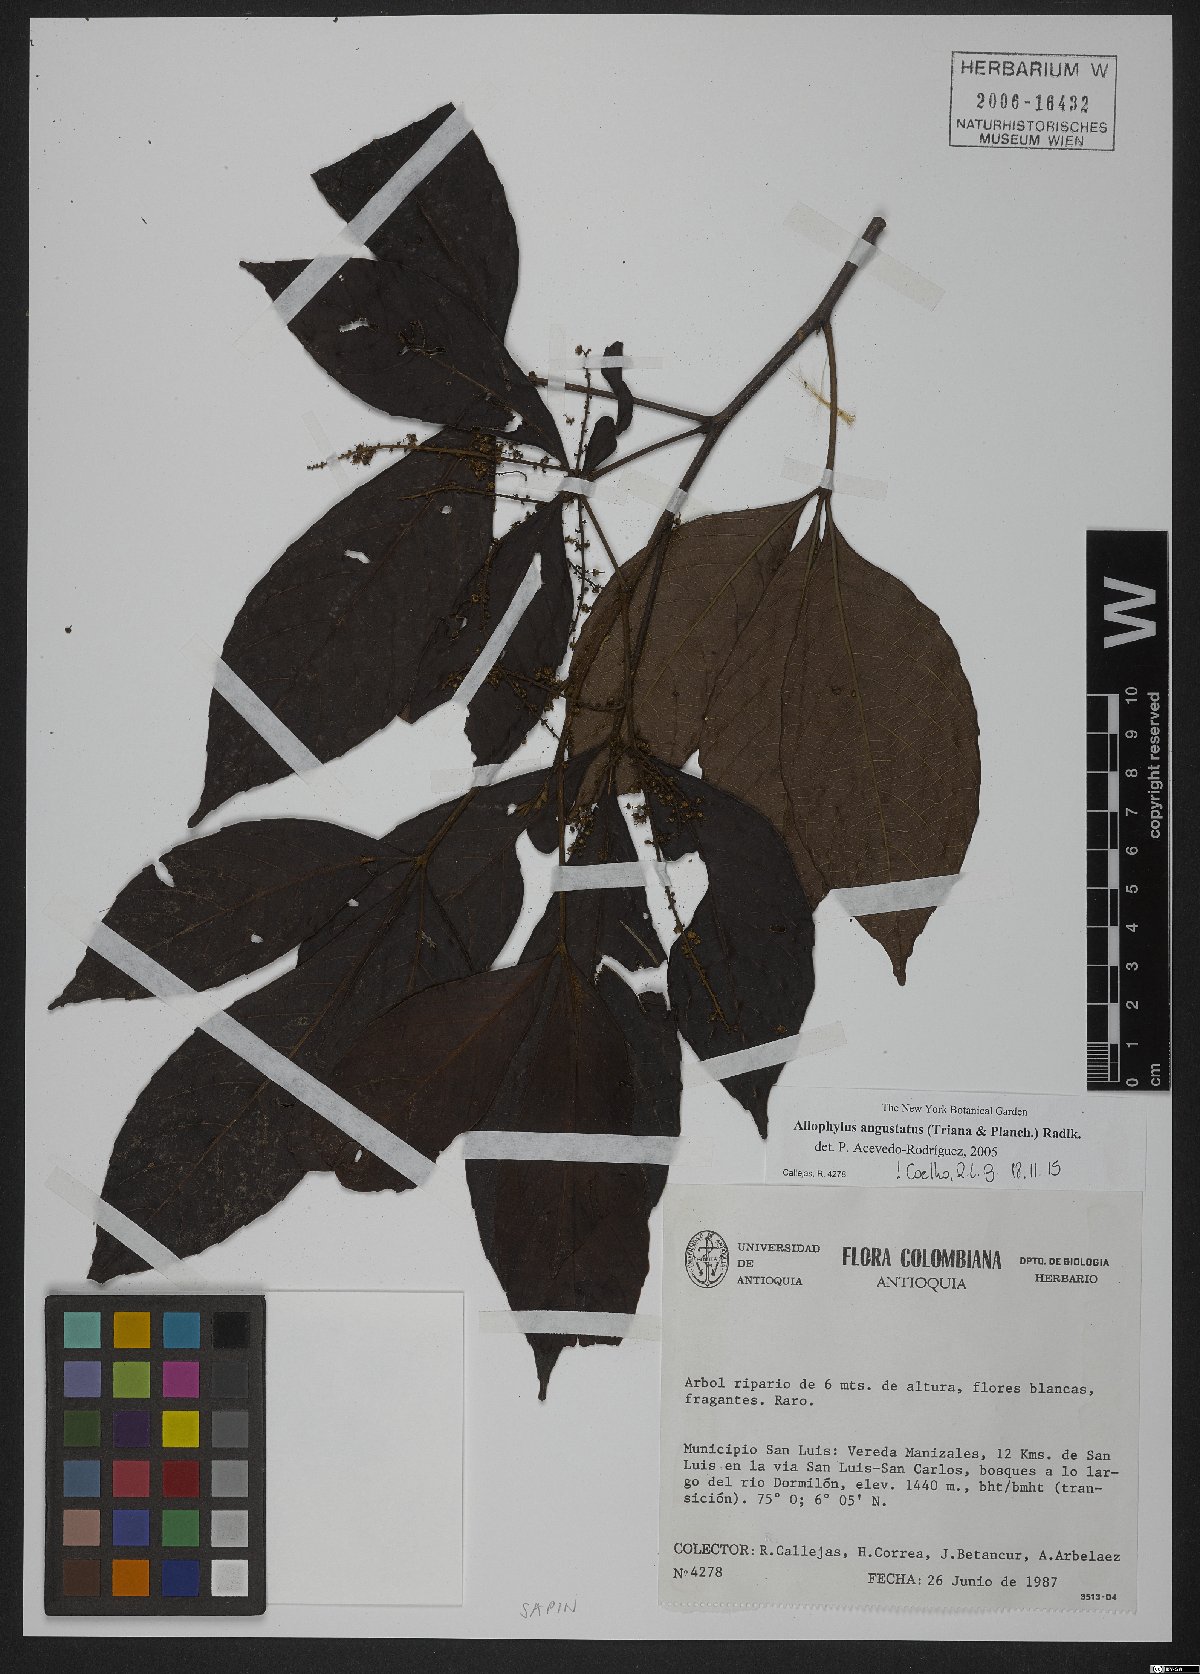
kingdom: Plantae
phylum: Tracheophyta
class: Magnoliopsida
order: Sapindales
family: Sapindaceae
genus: Allophylus
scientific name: Allophylus angustatus
